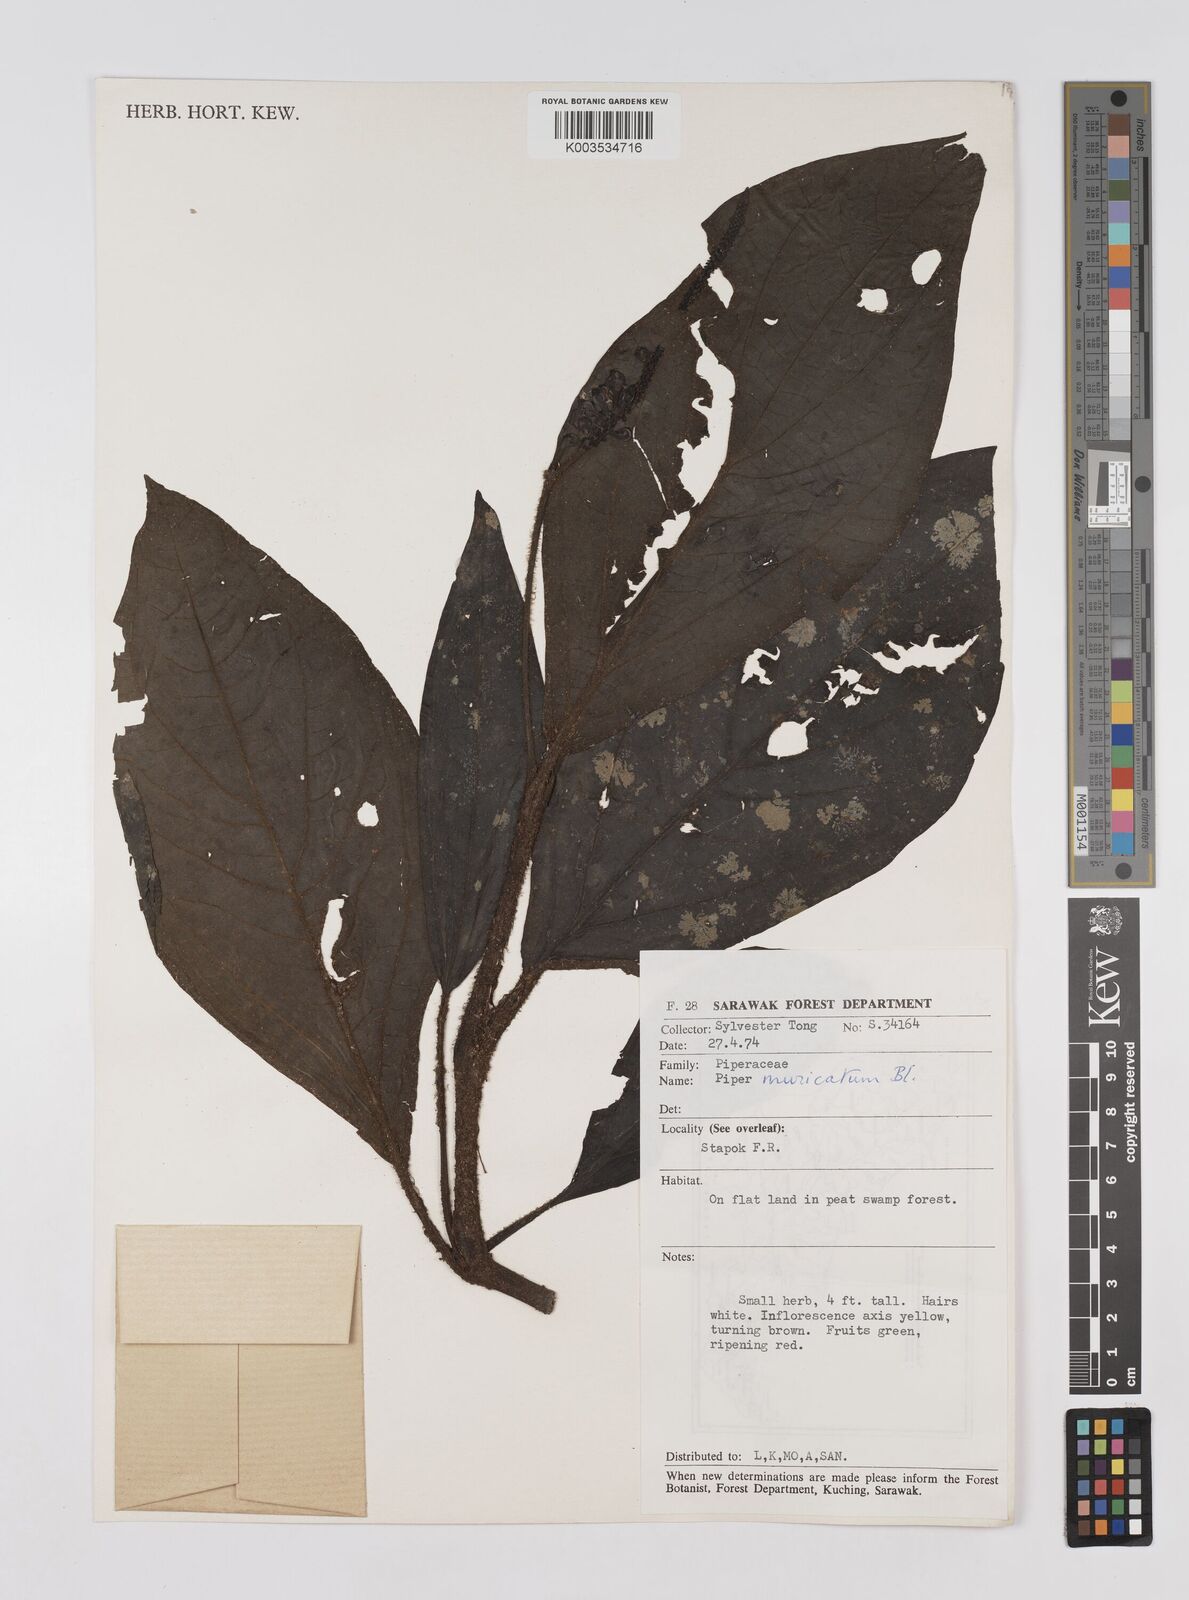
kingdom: Plantae
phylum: Tracheophyta
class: Magnoliopsida
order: Piperales
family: Piperaceae
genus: Piper
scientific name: Piper muricatum
